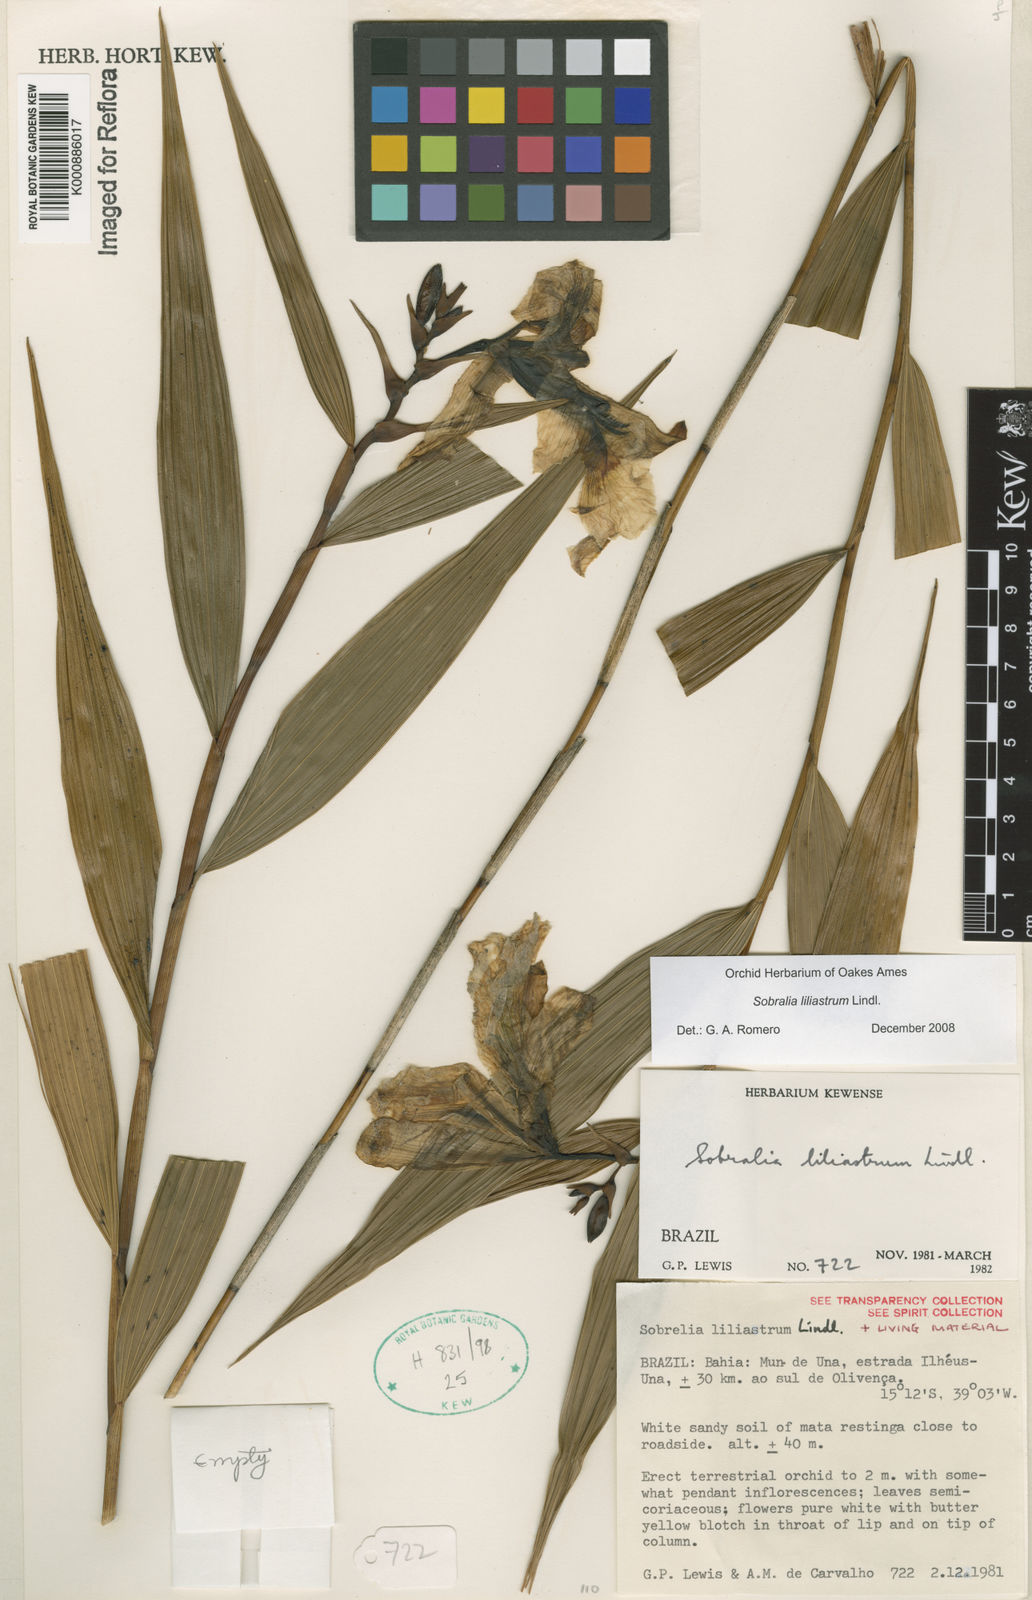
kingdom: Plantae
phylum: Tracheophyta
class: Liliopsida
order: Asparagales
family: Orchidaceae
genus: Sobralia
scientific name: Sobralia liliastrum
